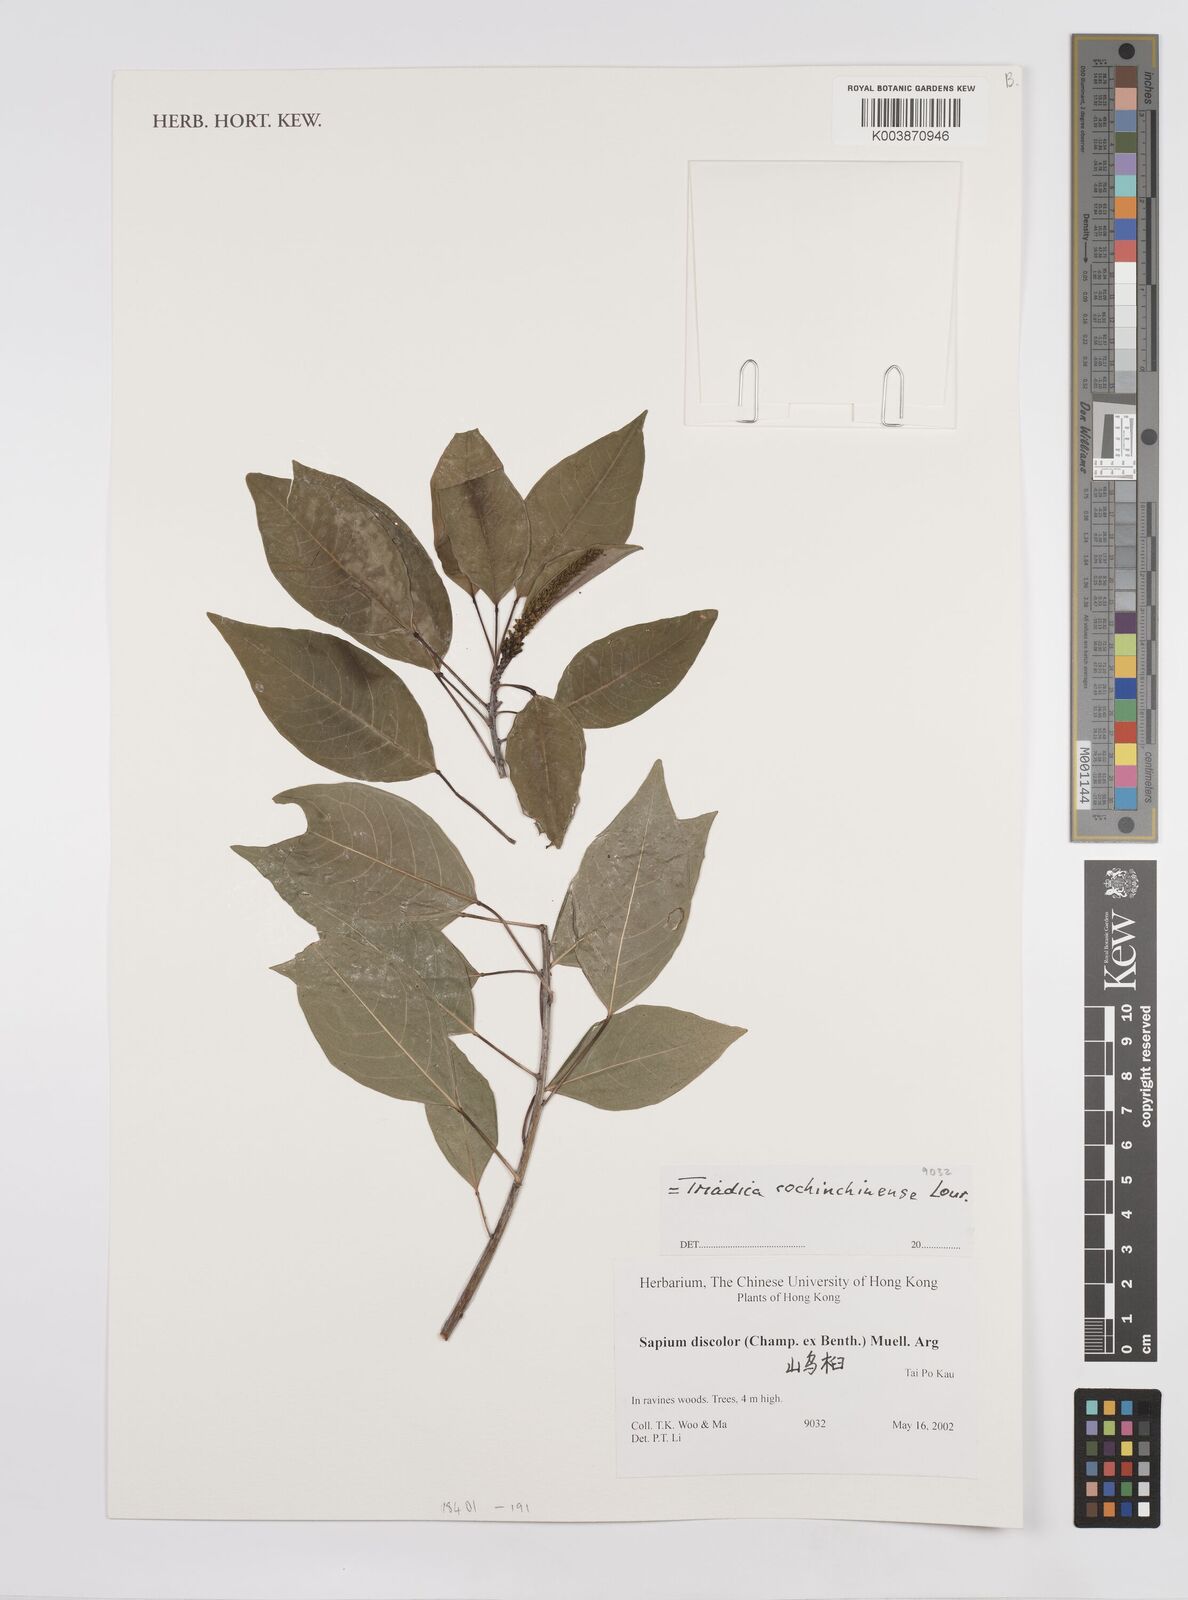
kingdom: Plantae
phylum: Tracheophyta
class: Magnoliopsida
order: Malpighiales
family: Euphorbiaceae
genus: Triadica
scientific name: Triadica cochinchinensis
